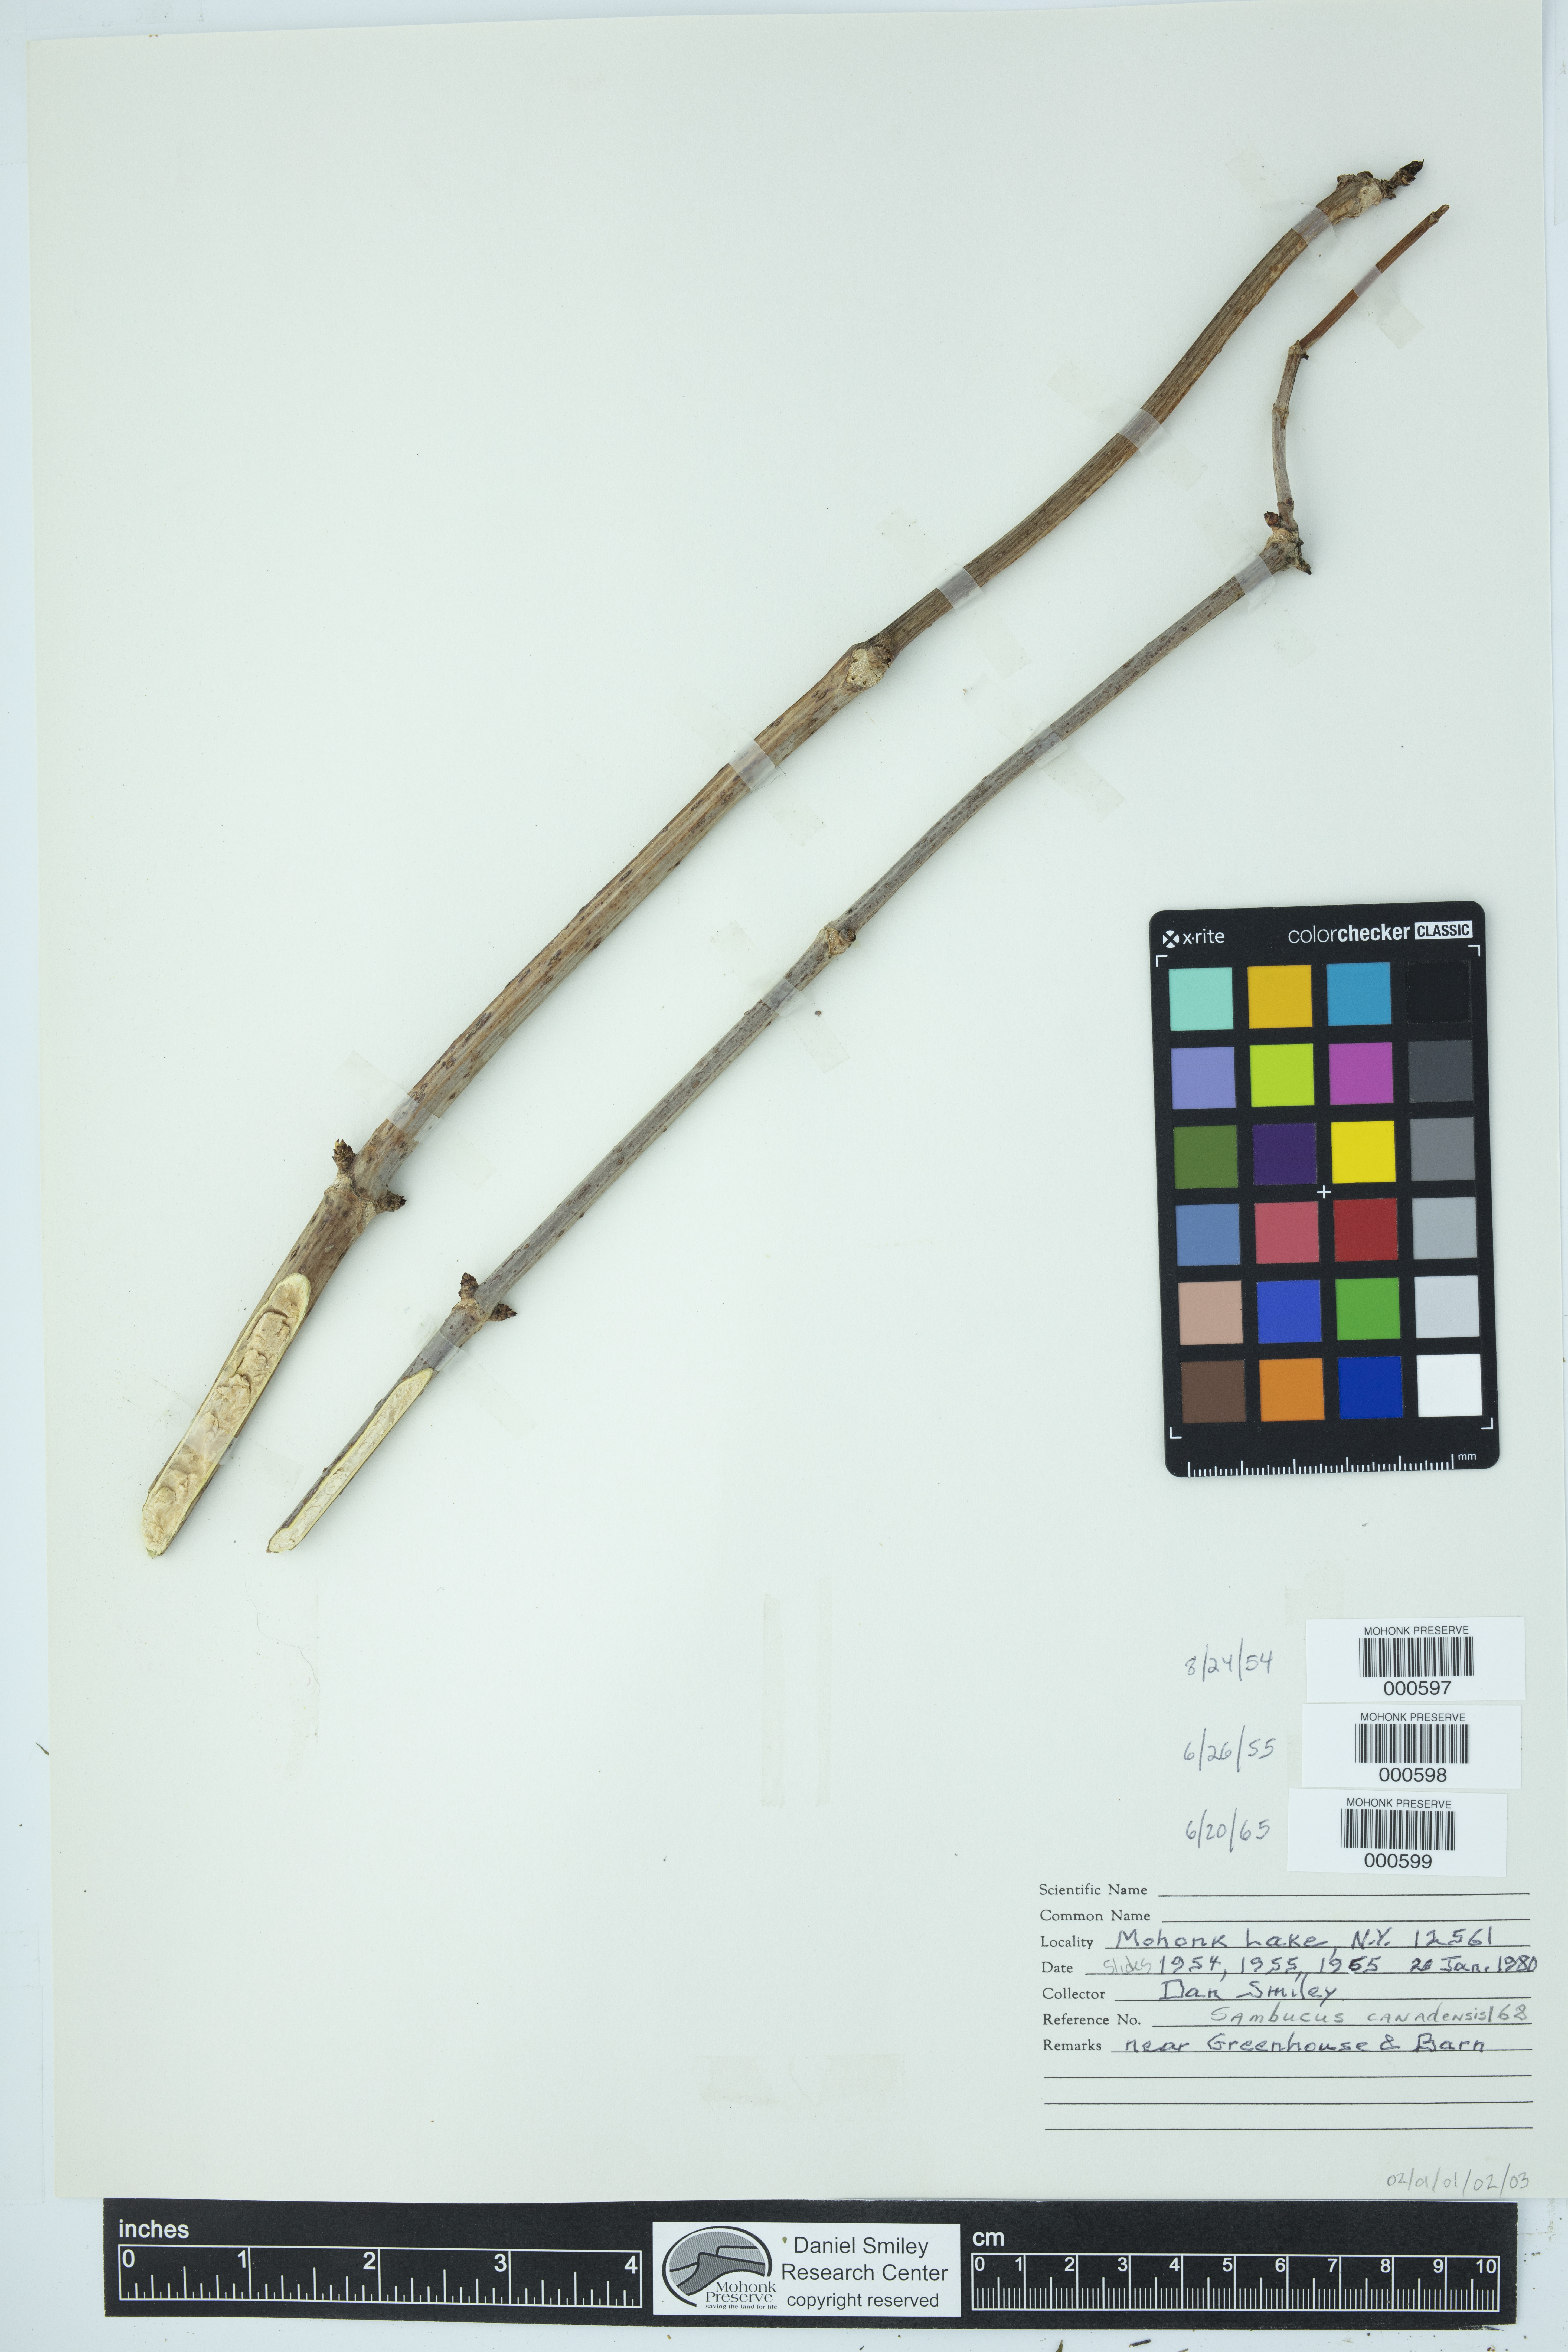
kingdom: Plantae
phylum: Tracheophyta
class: Magnoliopsida
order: Dipsacales
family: Viburnaceae
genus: Sambucus
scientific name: Sambucus canadensis
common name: American elder
